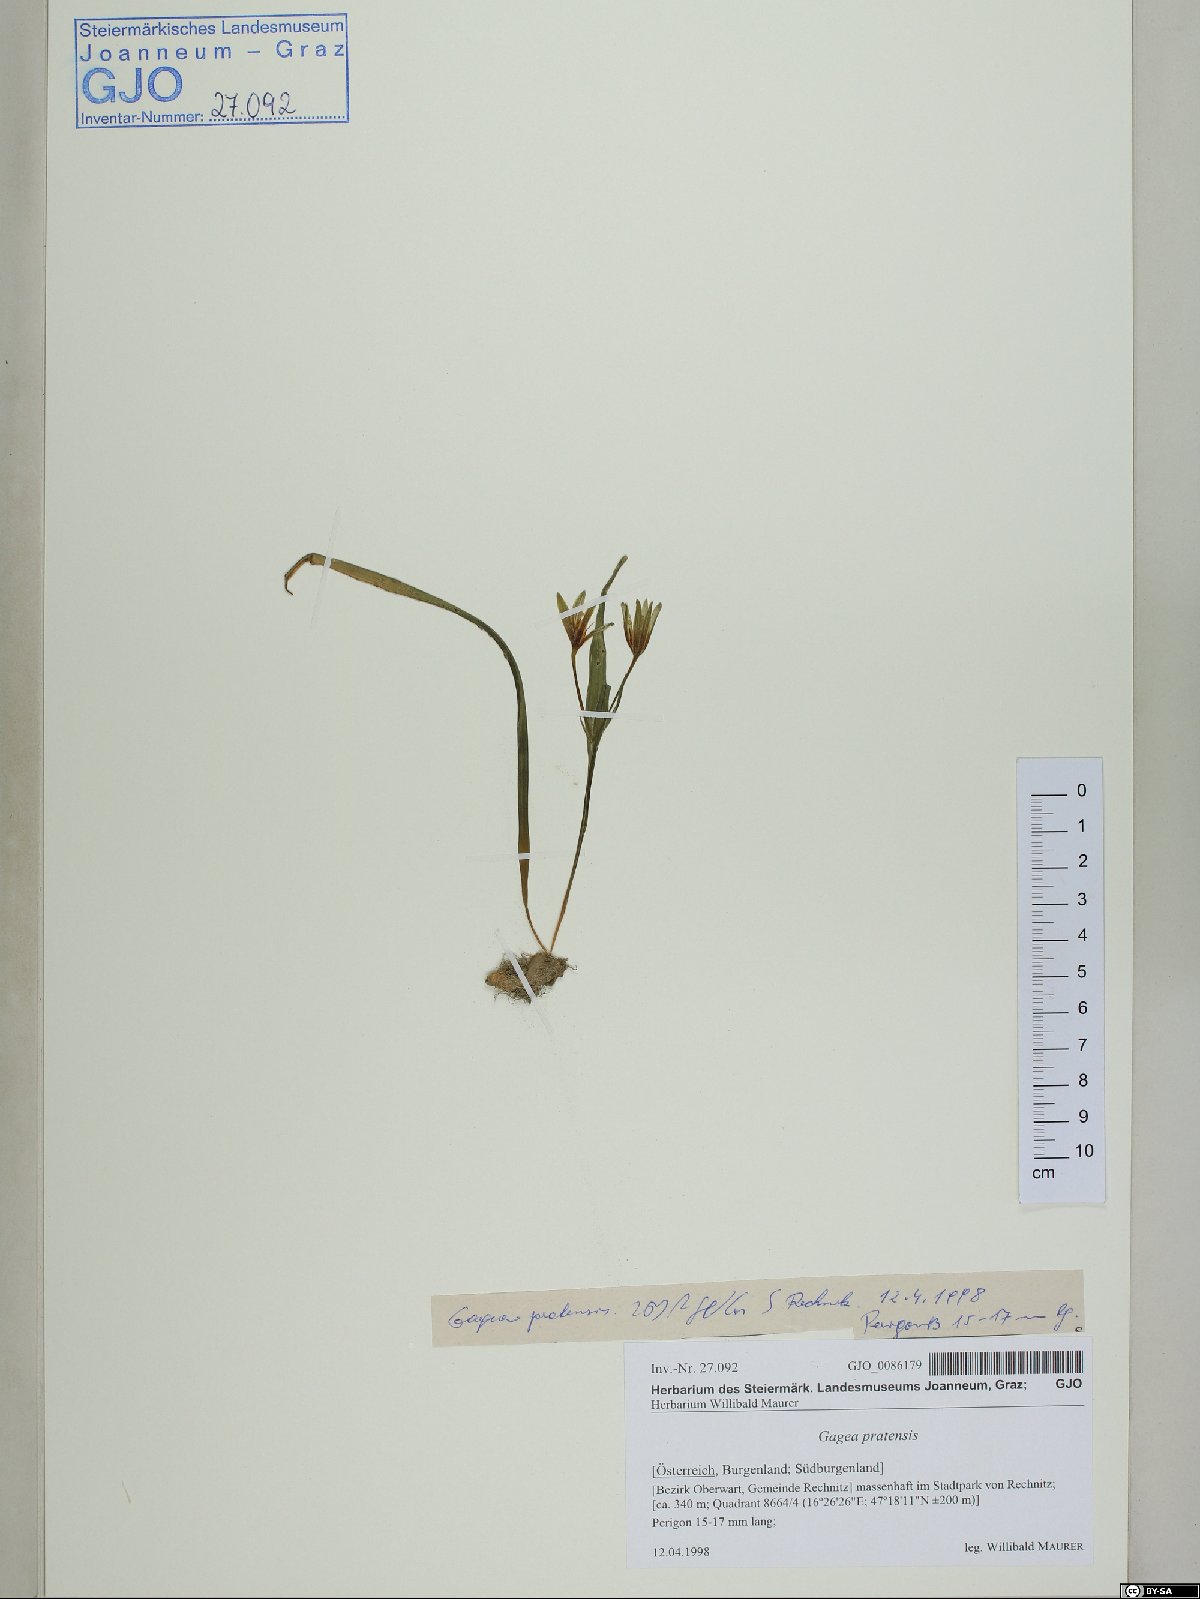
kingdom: Plantae
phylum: Tracheophyta
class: Liliopsida
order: Liliales
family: Liliaceae
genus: Gagea
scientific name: Gagea pratensis
